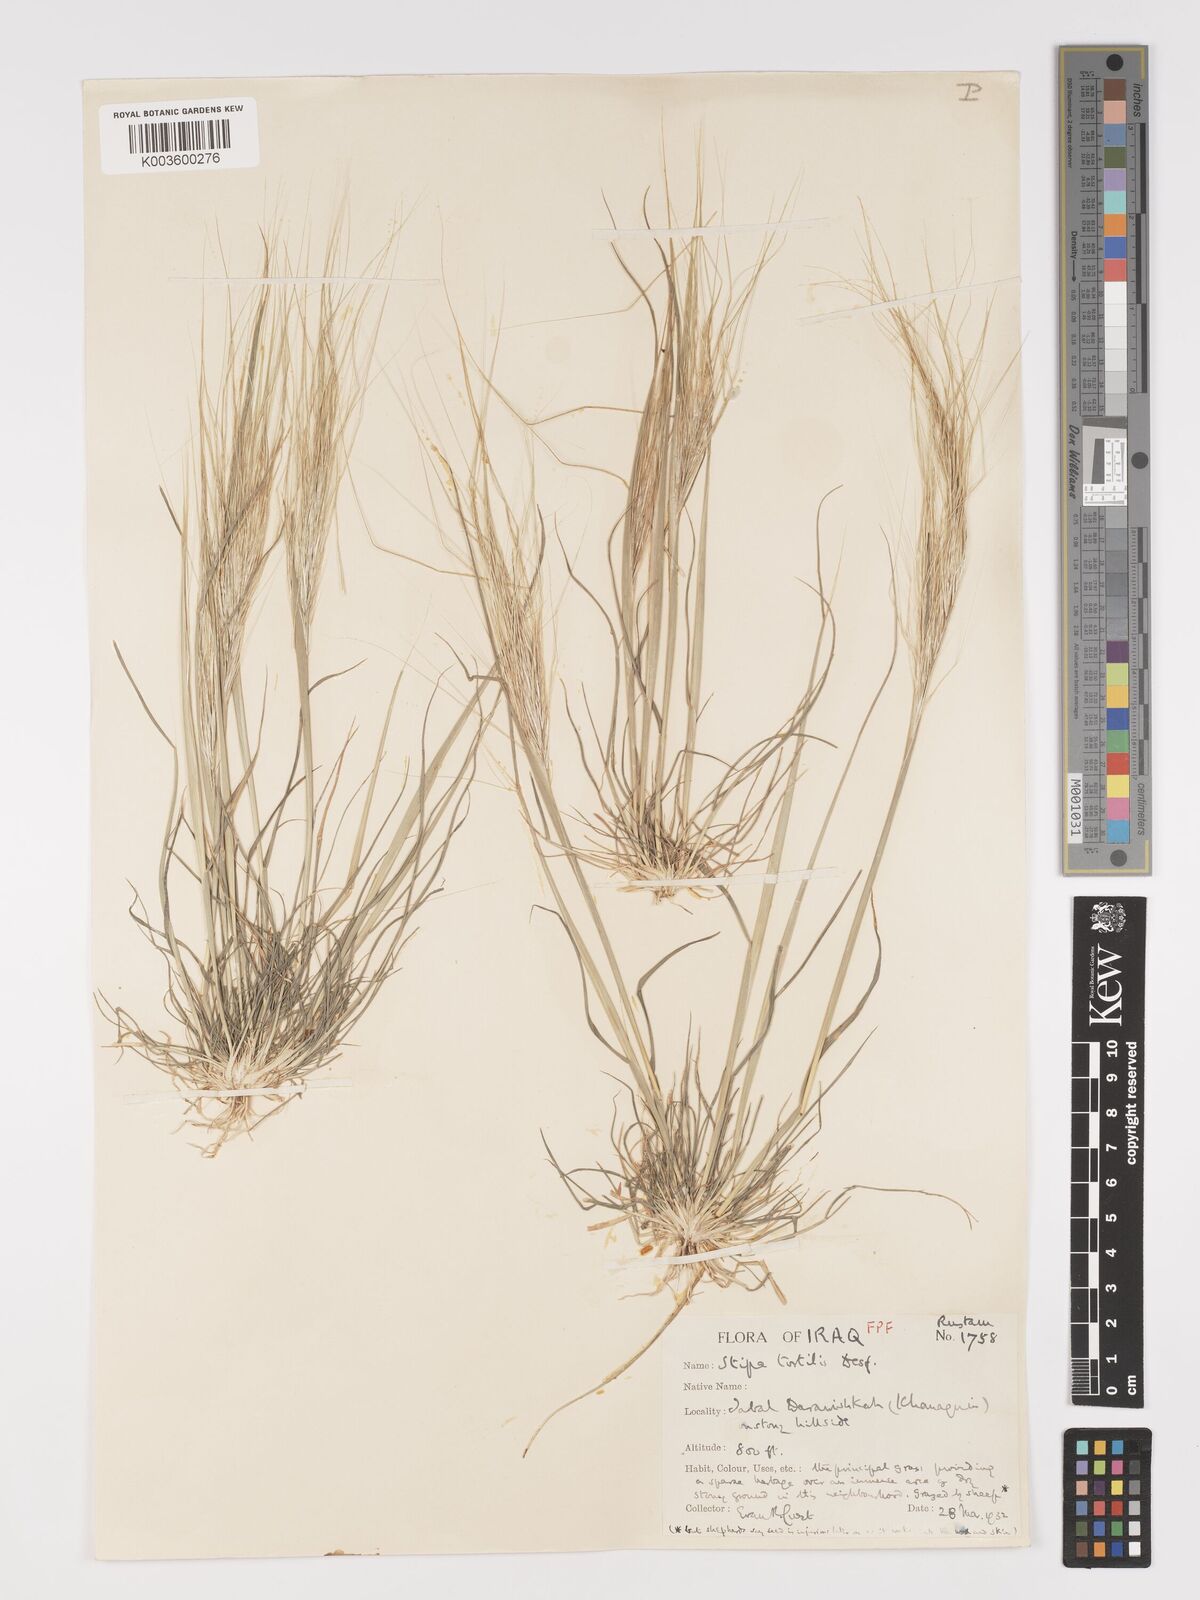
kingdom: Plantae
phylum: Tracheophyta
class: Liliopsida
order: Poales
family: Poaceae
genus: Stipellula
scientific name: Stipellula capensis
